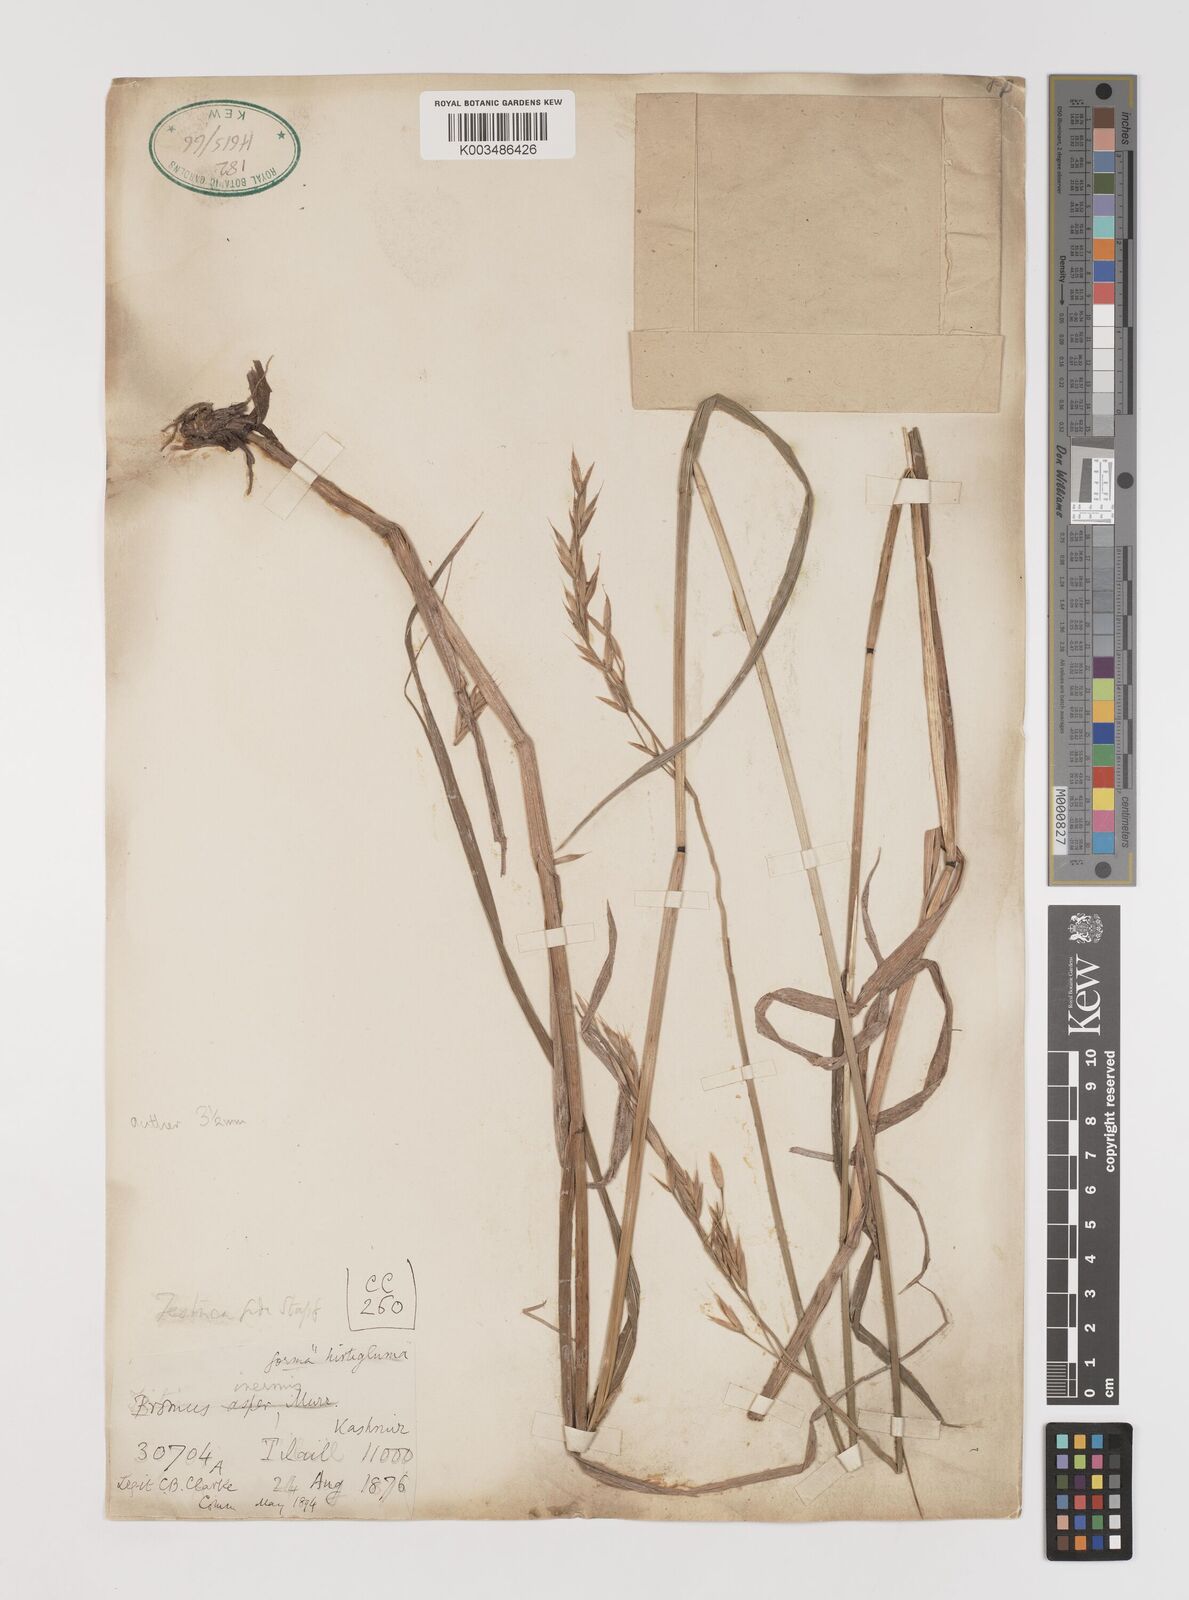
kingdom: Plantae
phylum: Tracheophyta
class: Liliopsida
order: Poales
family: Poaceae
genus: Bromus
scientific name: Bromus confinis
